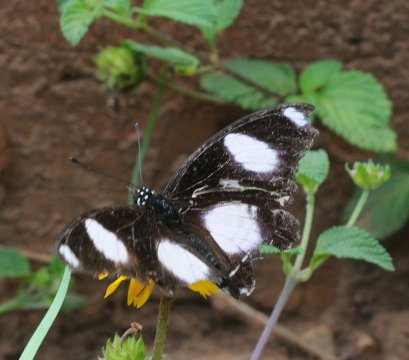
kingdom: Animalia
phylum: Arthropoda
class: Insecta
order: Lepidoptera
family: Nymphalidae
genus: Hypolimnas
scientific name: Hypolimnas misippus
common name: Mimic
